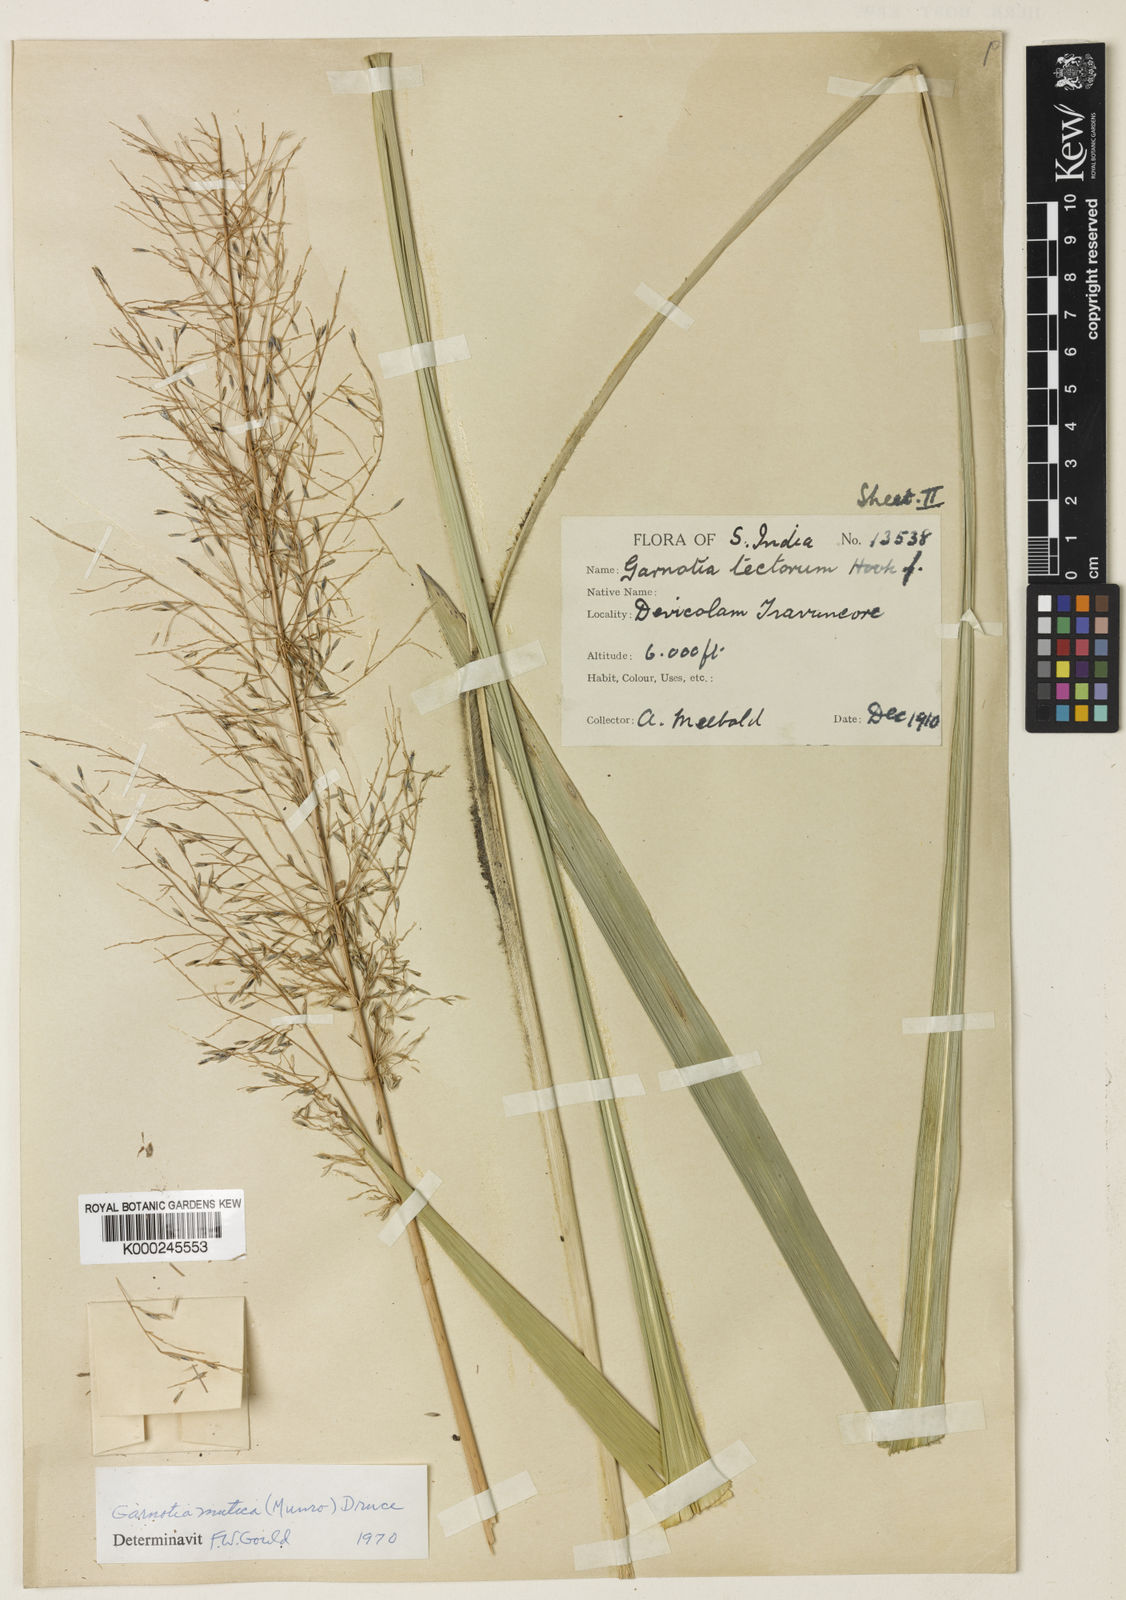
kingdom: Plantae
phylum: Tracheophyta
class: Liliopsida
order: Poales
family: Poaceae
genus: Garnotia
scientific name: Garnotia exaristata
